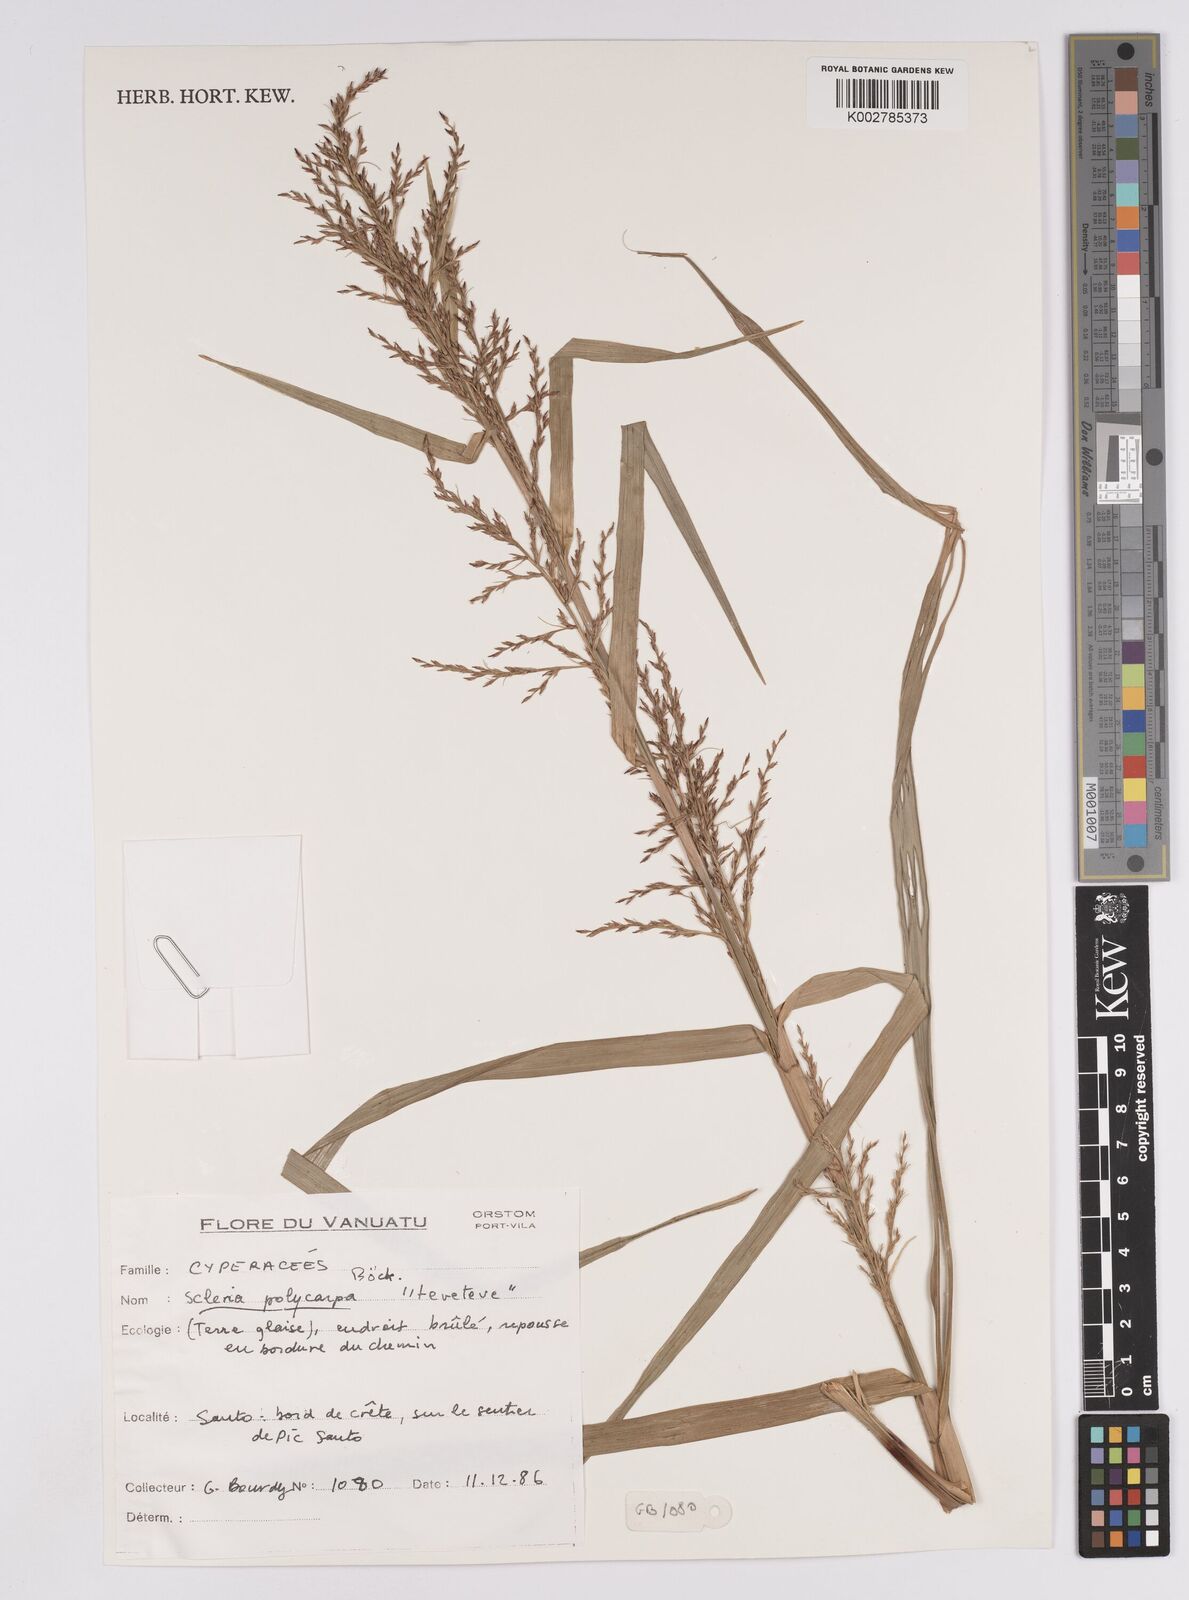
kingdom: Plantae
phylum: Tracheophyta
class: Liliopsida
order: Poales
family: Cyperaceae
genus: Scleria
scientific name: Scleria polycarpa
